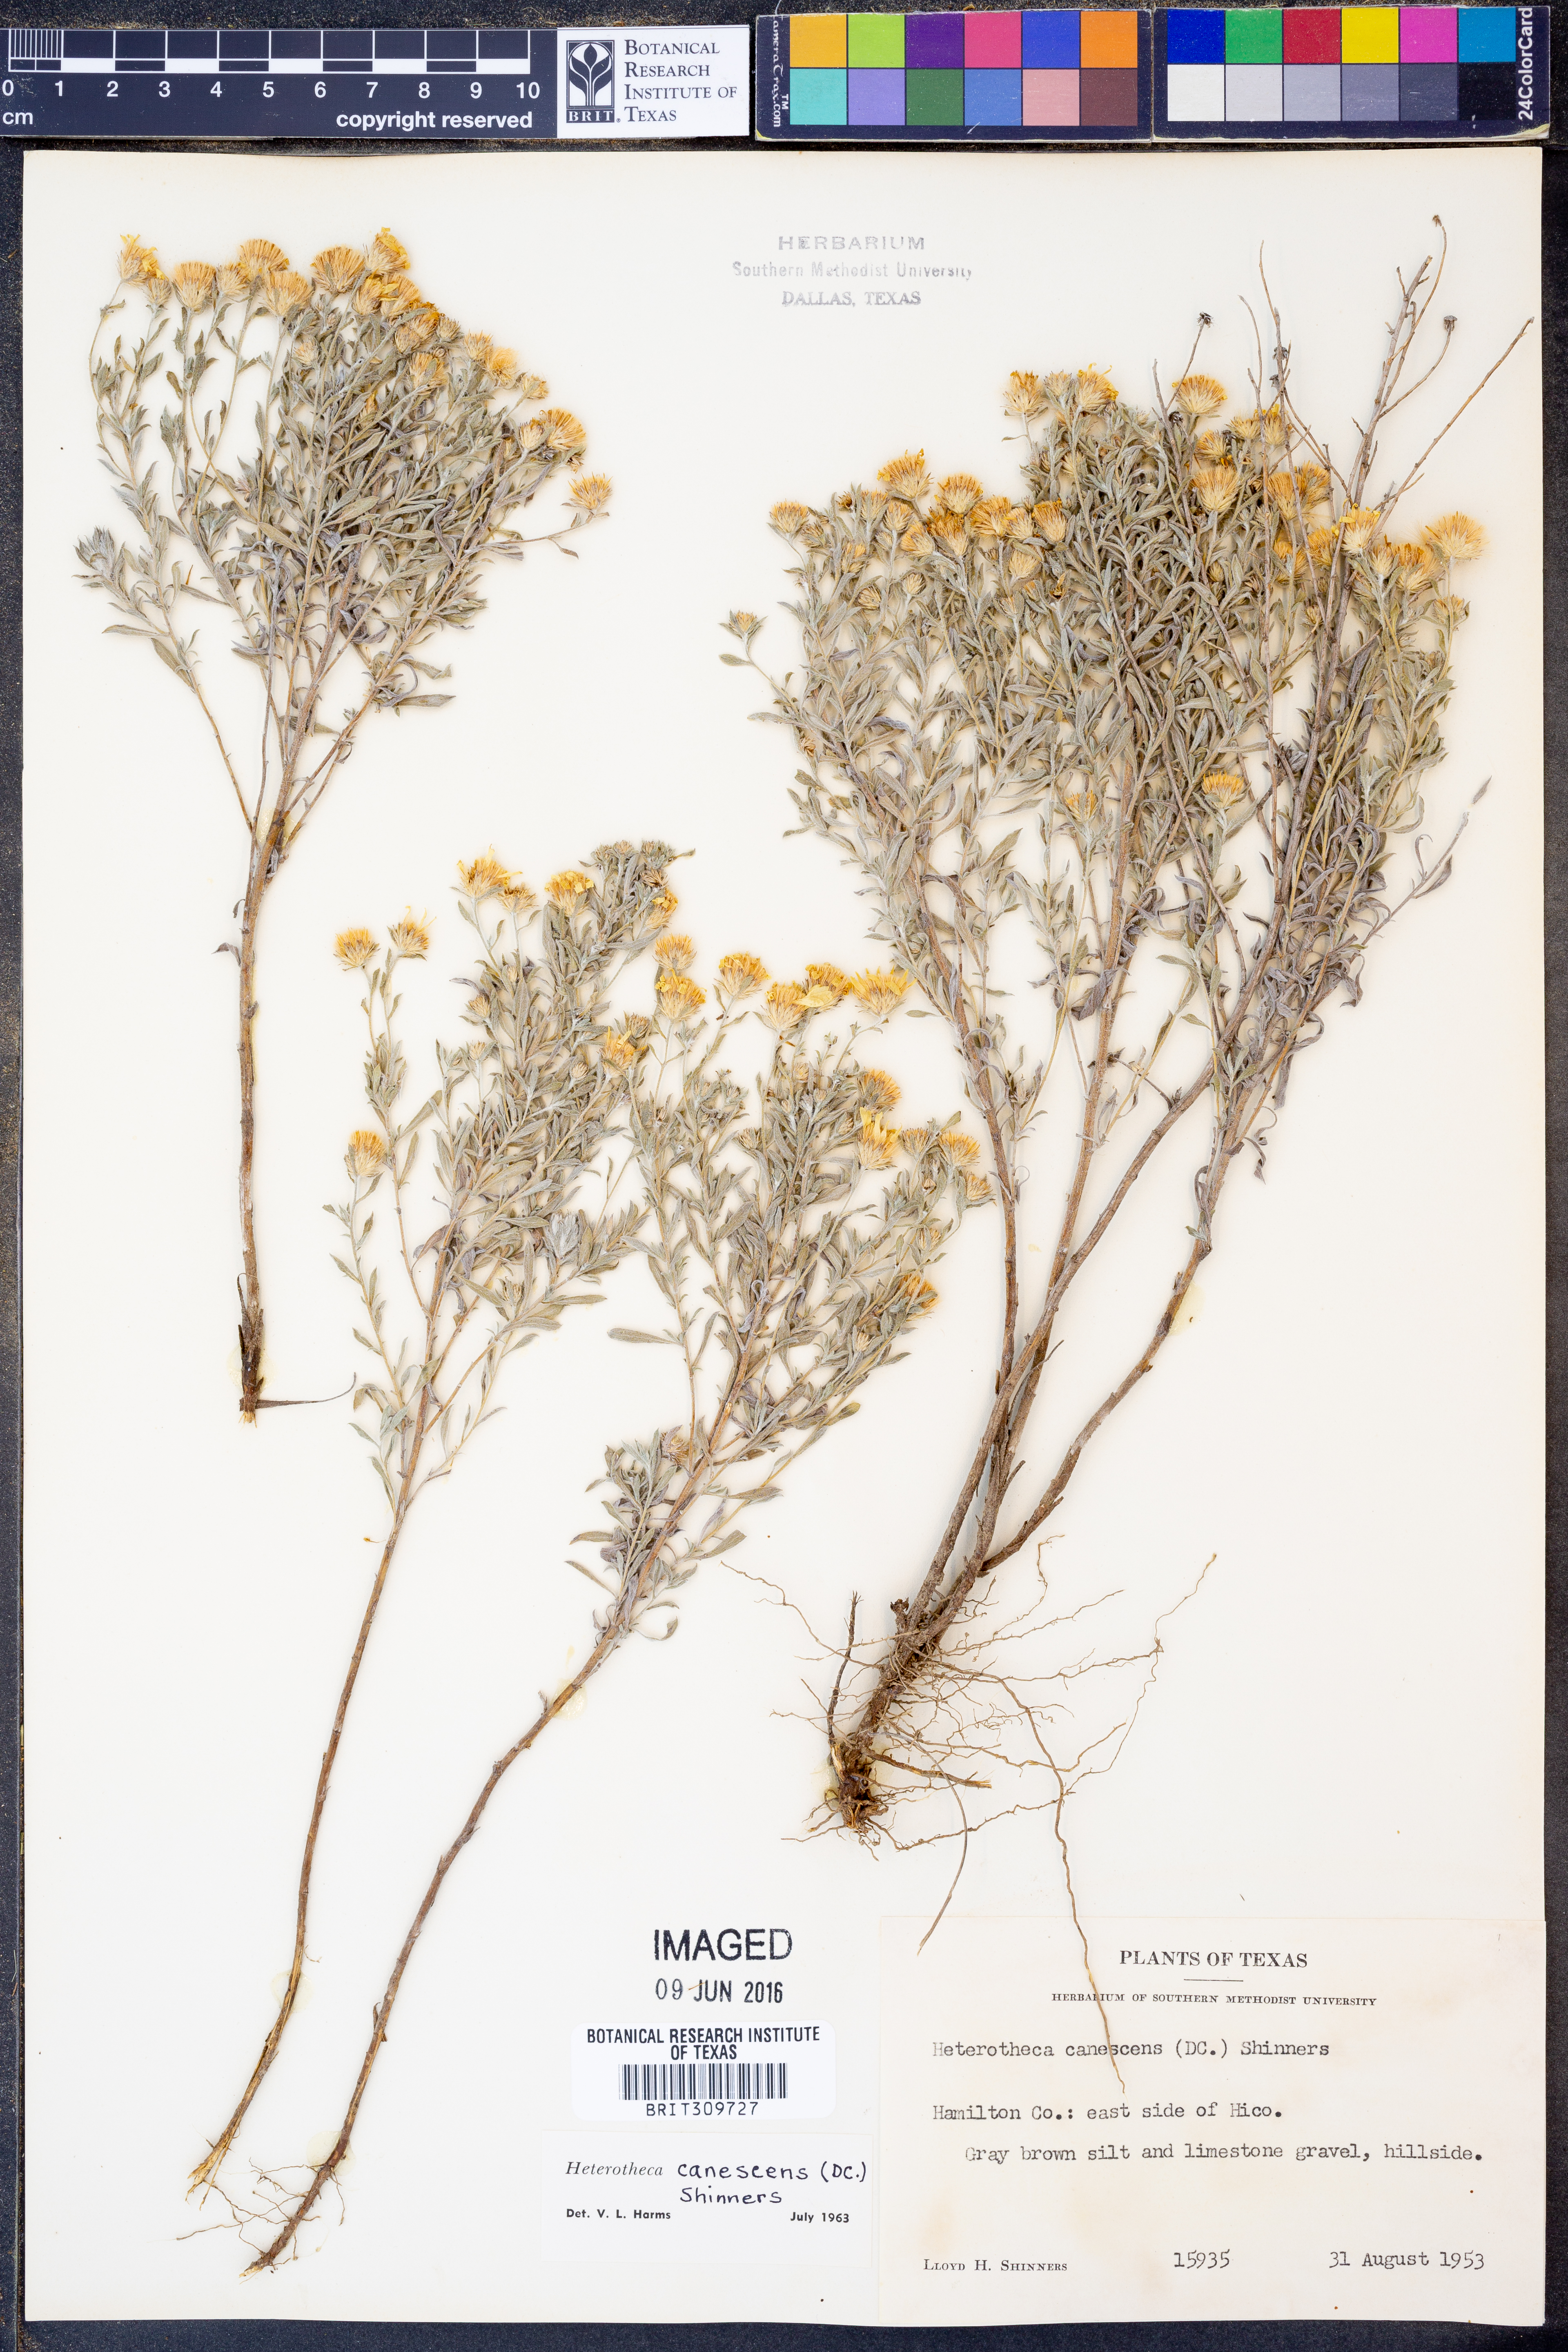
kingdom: Plantae
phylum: Tracheophyta
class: Magnoliopsida
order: Asterales
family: Asteraceae
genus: Heterotheca
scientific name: Heterotheca canescens
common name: Hoary golden-aster
